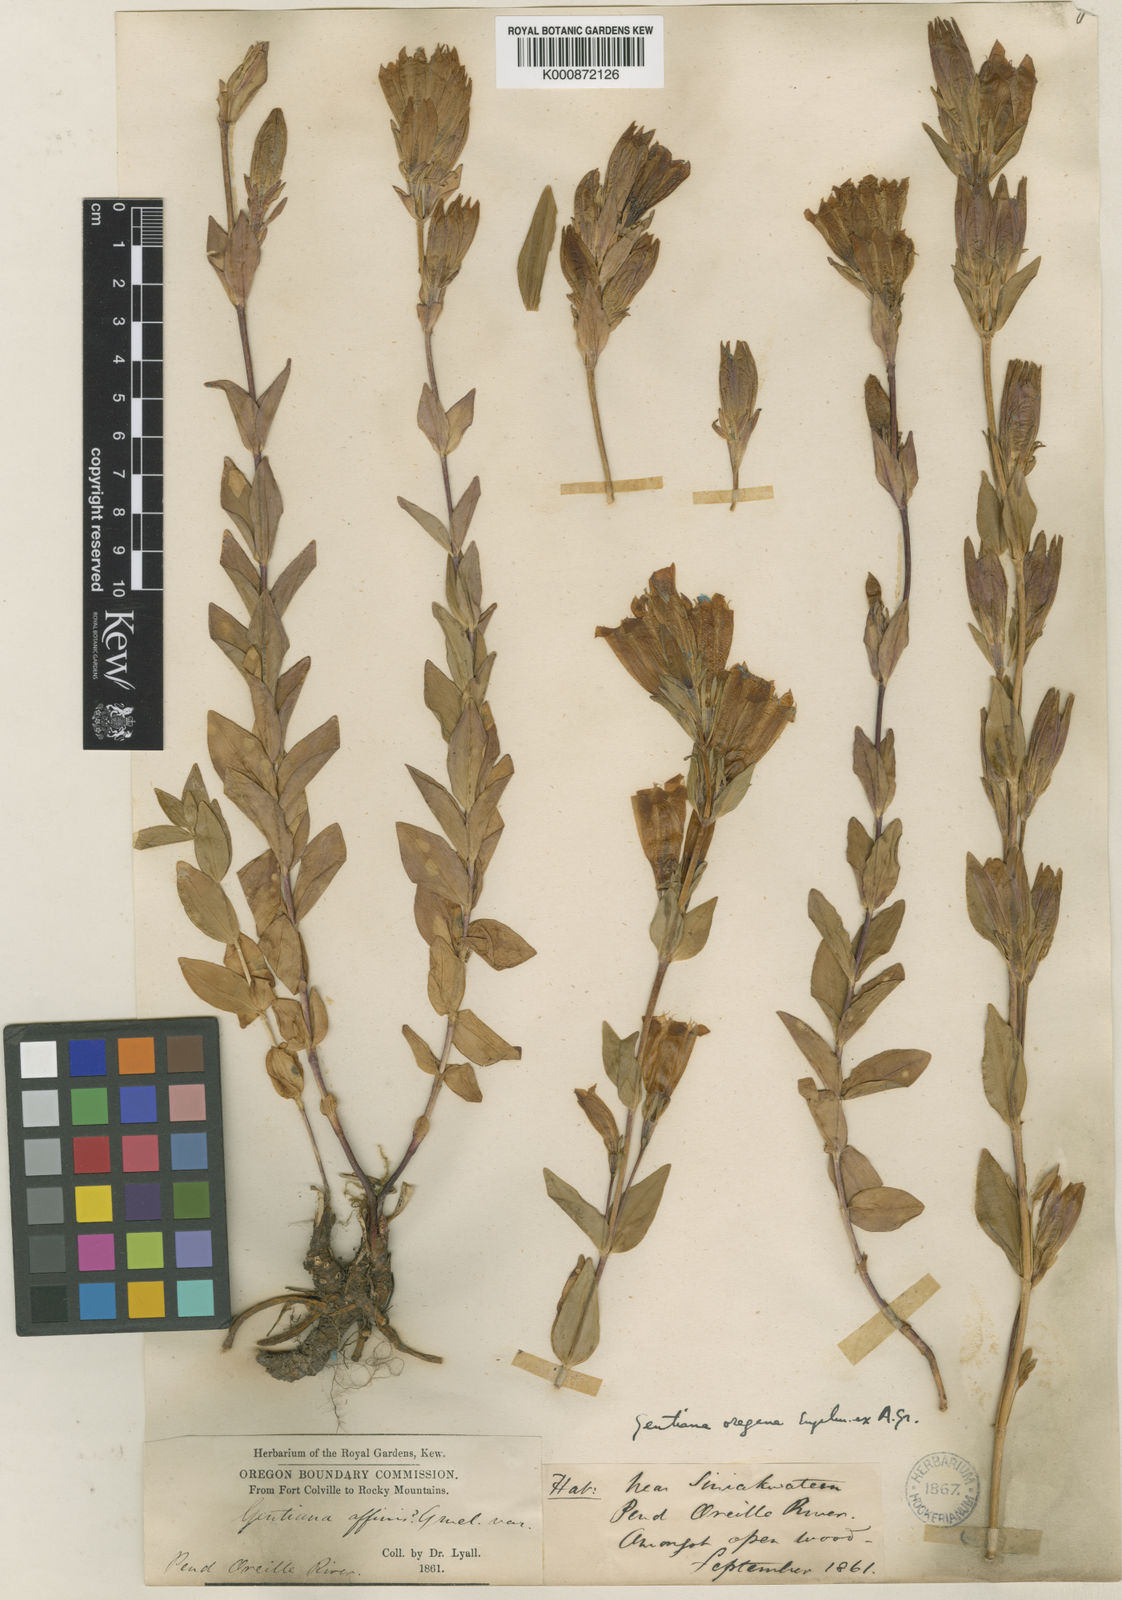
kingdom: Plantae
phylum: Tracheophyta
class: Magnoliopsida
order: Gentianales
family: Gentianaceae
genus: Gentiana
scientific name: Gentiana affinis
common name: Rocky mountain gentian
